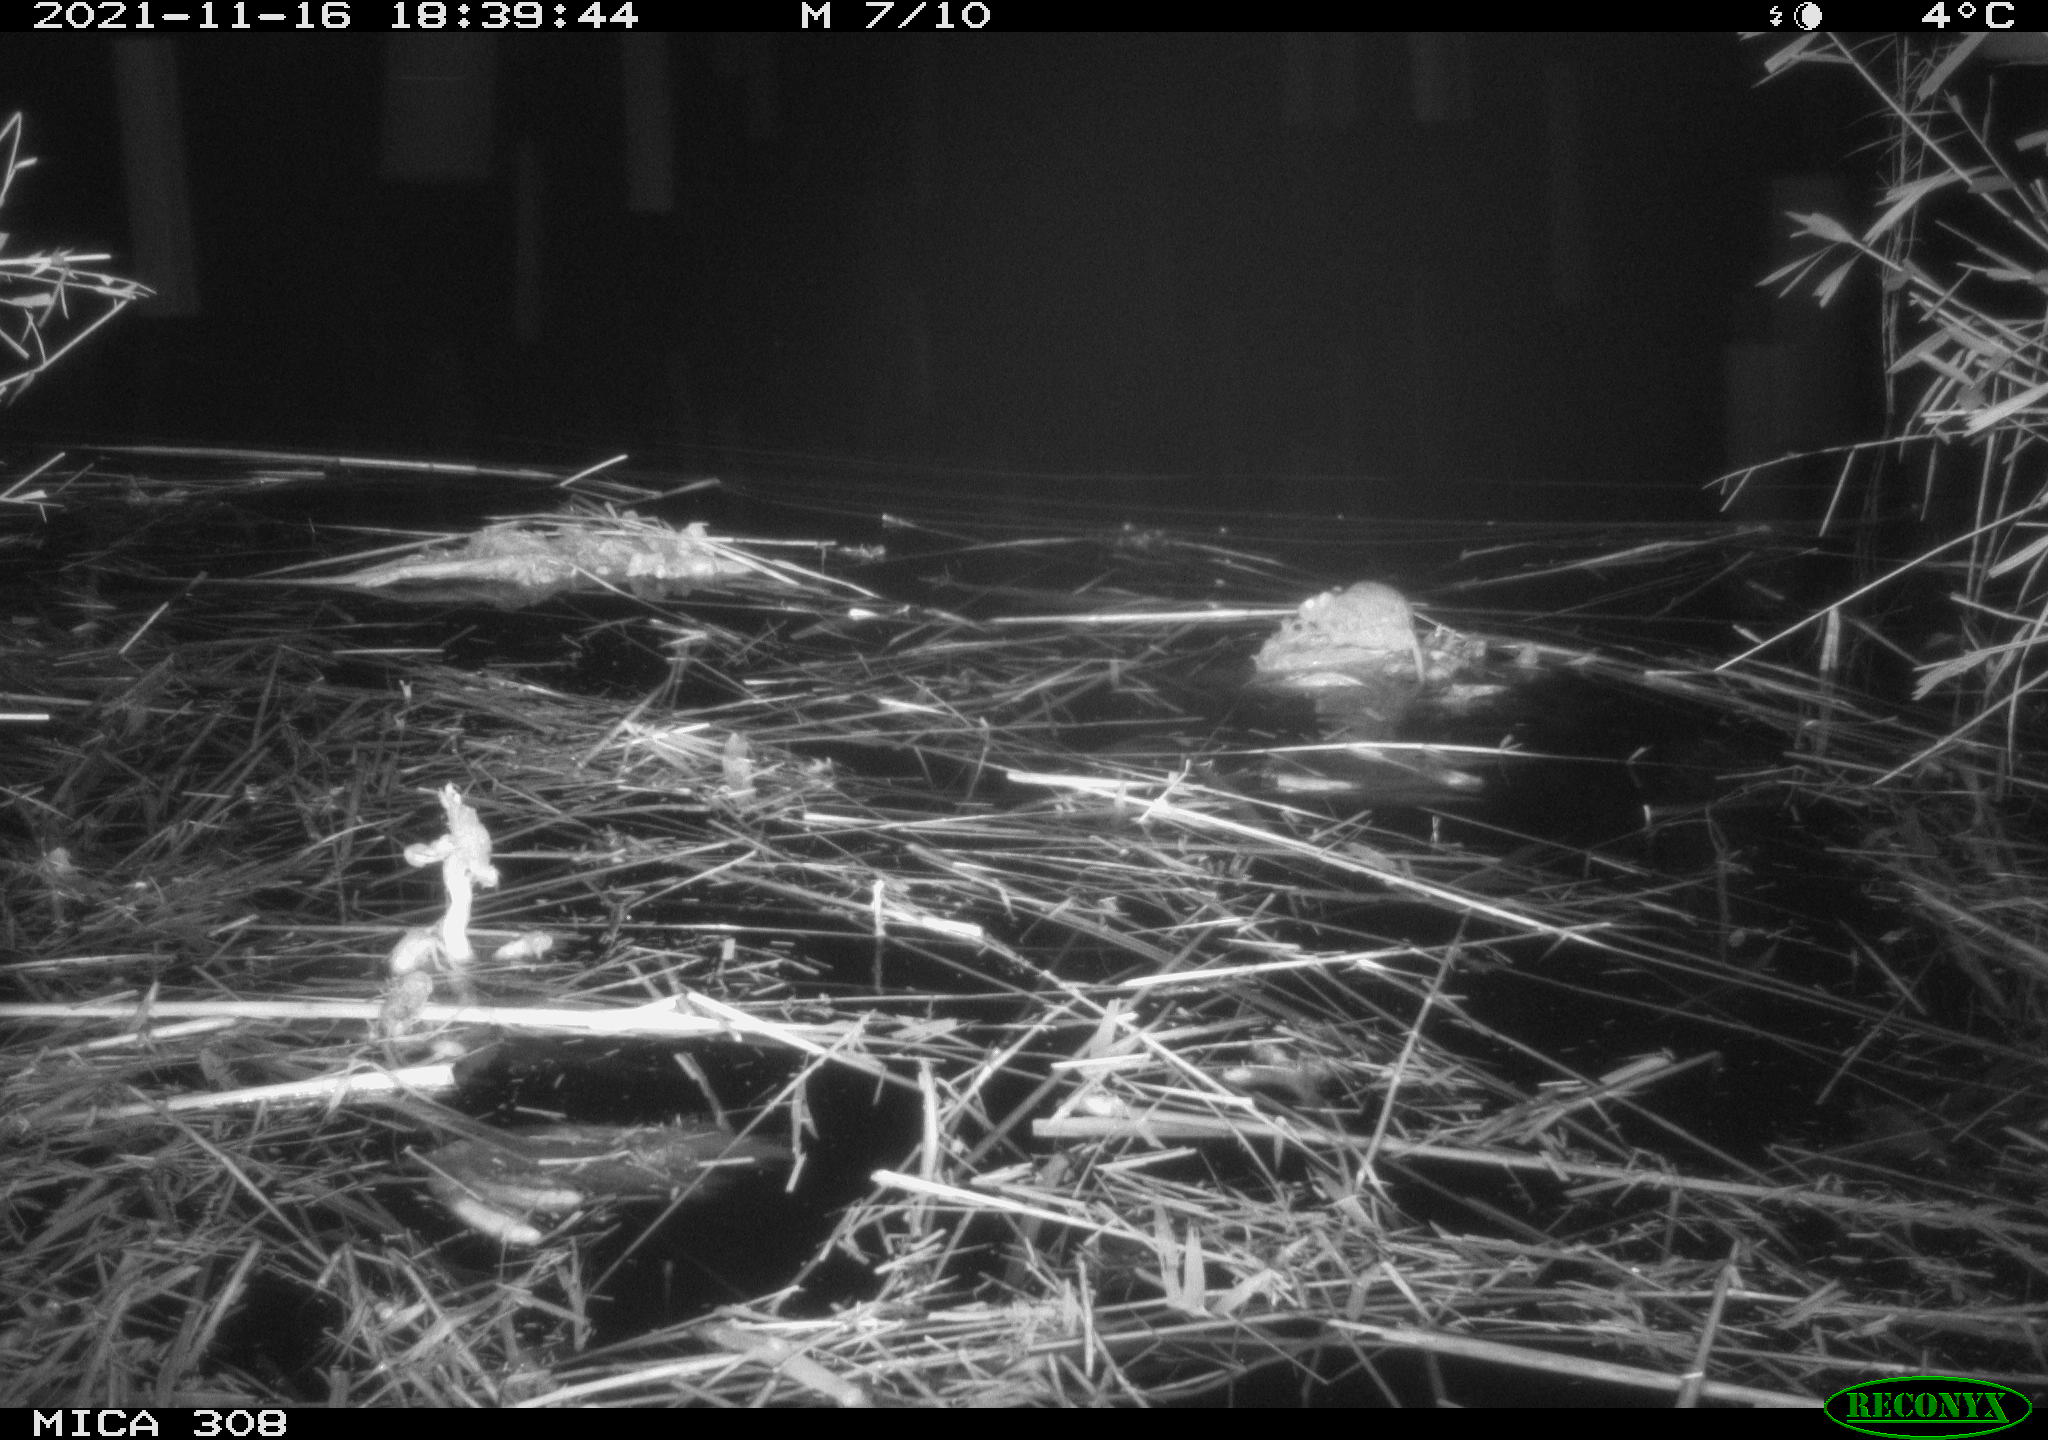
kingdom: Animalia
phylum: Chordata
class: Mammalia
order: Rodentia
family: Muridae
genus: Rattus
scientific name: Rattus norvegicus
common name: Brown rat
